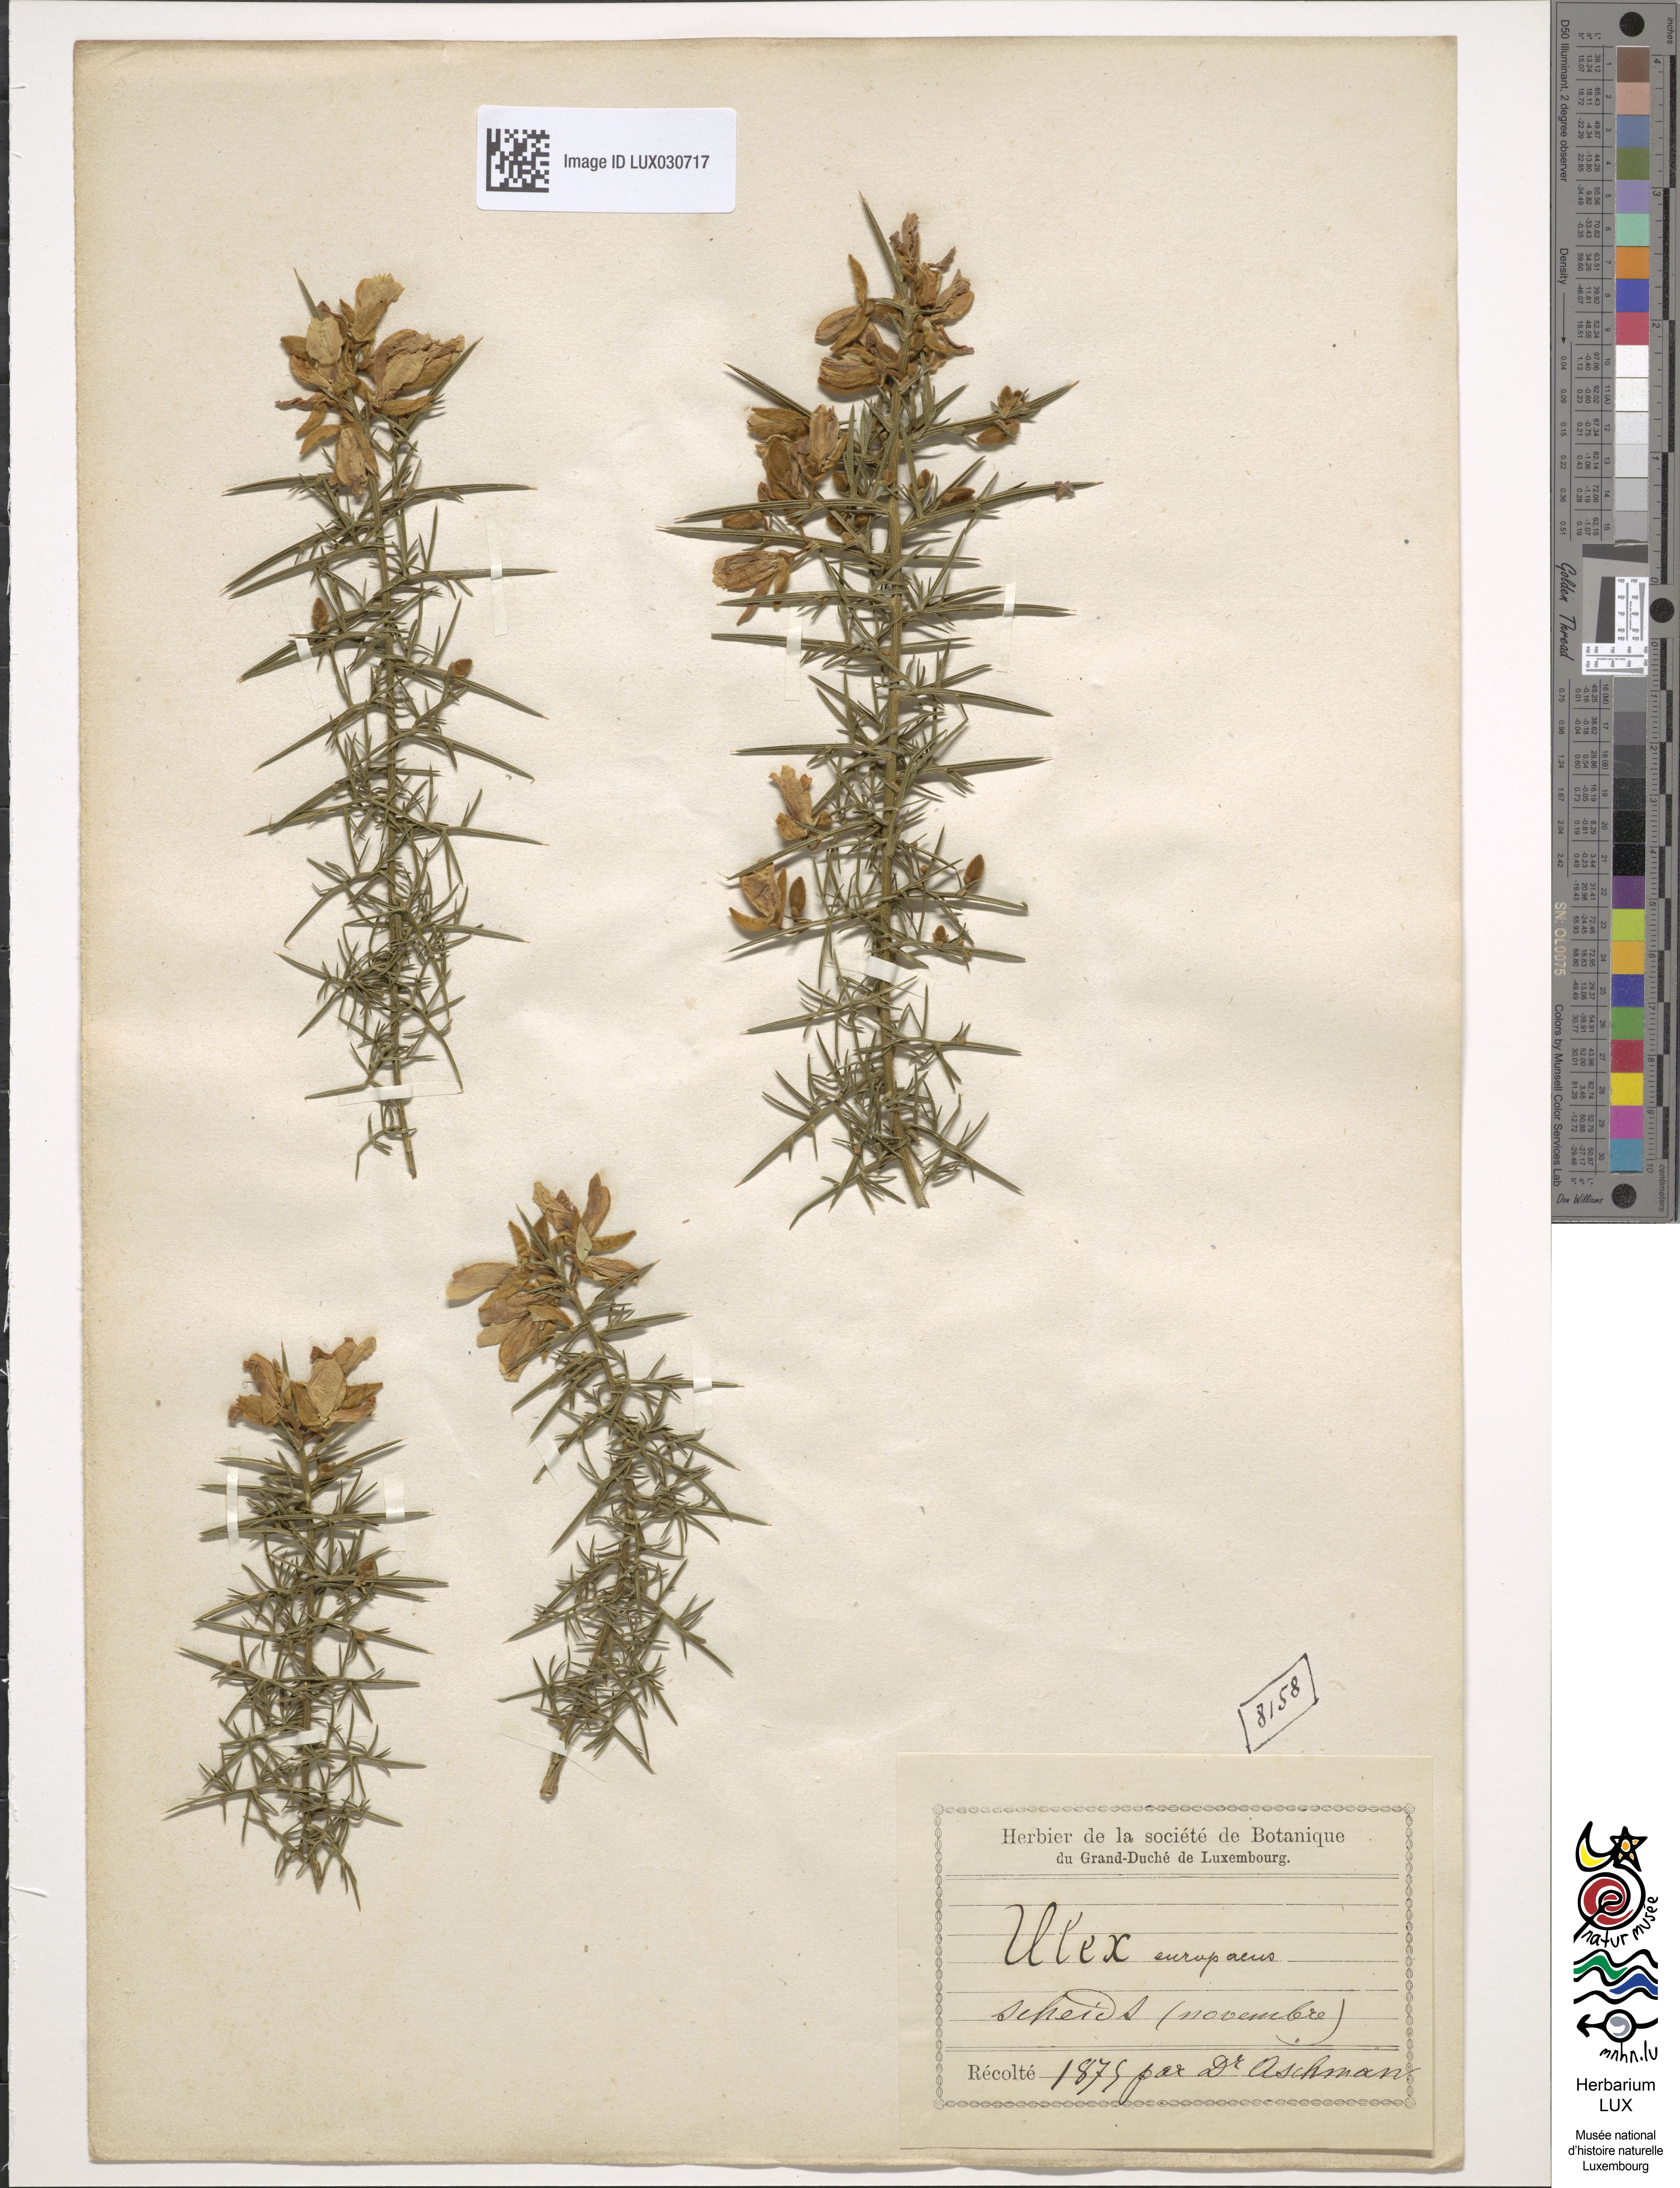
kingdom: Plantae
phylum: Tracheophyta
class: Magnoliopsida
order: Fabales
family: Fabaceae
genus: Ulex
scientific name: Ulex europaeus
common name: Common gorse
